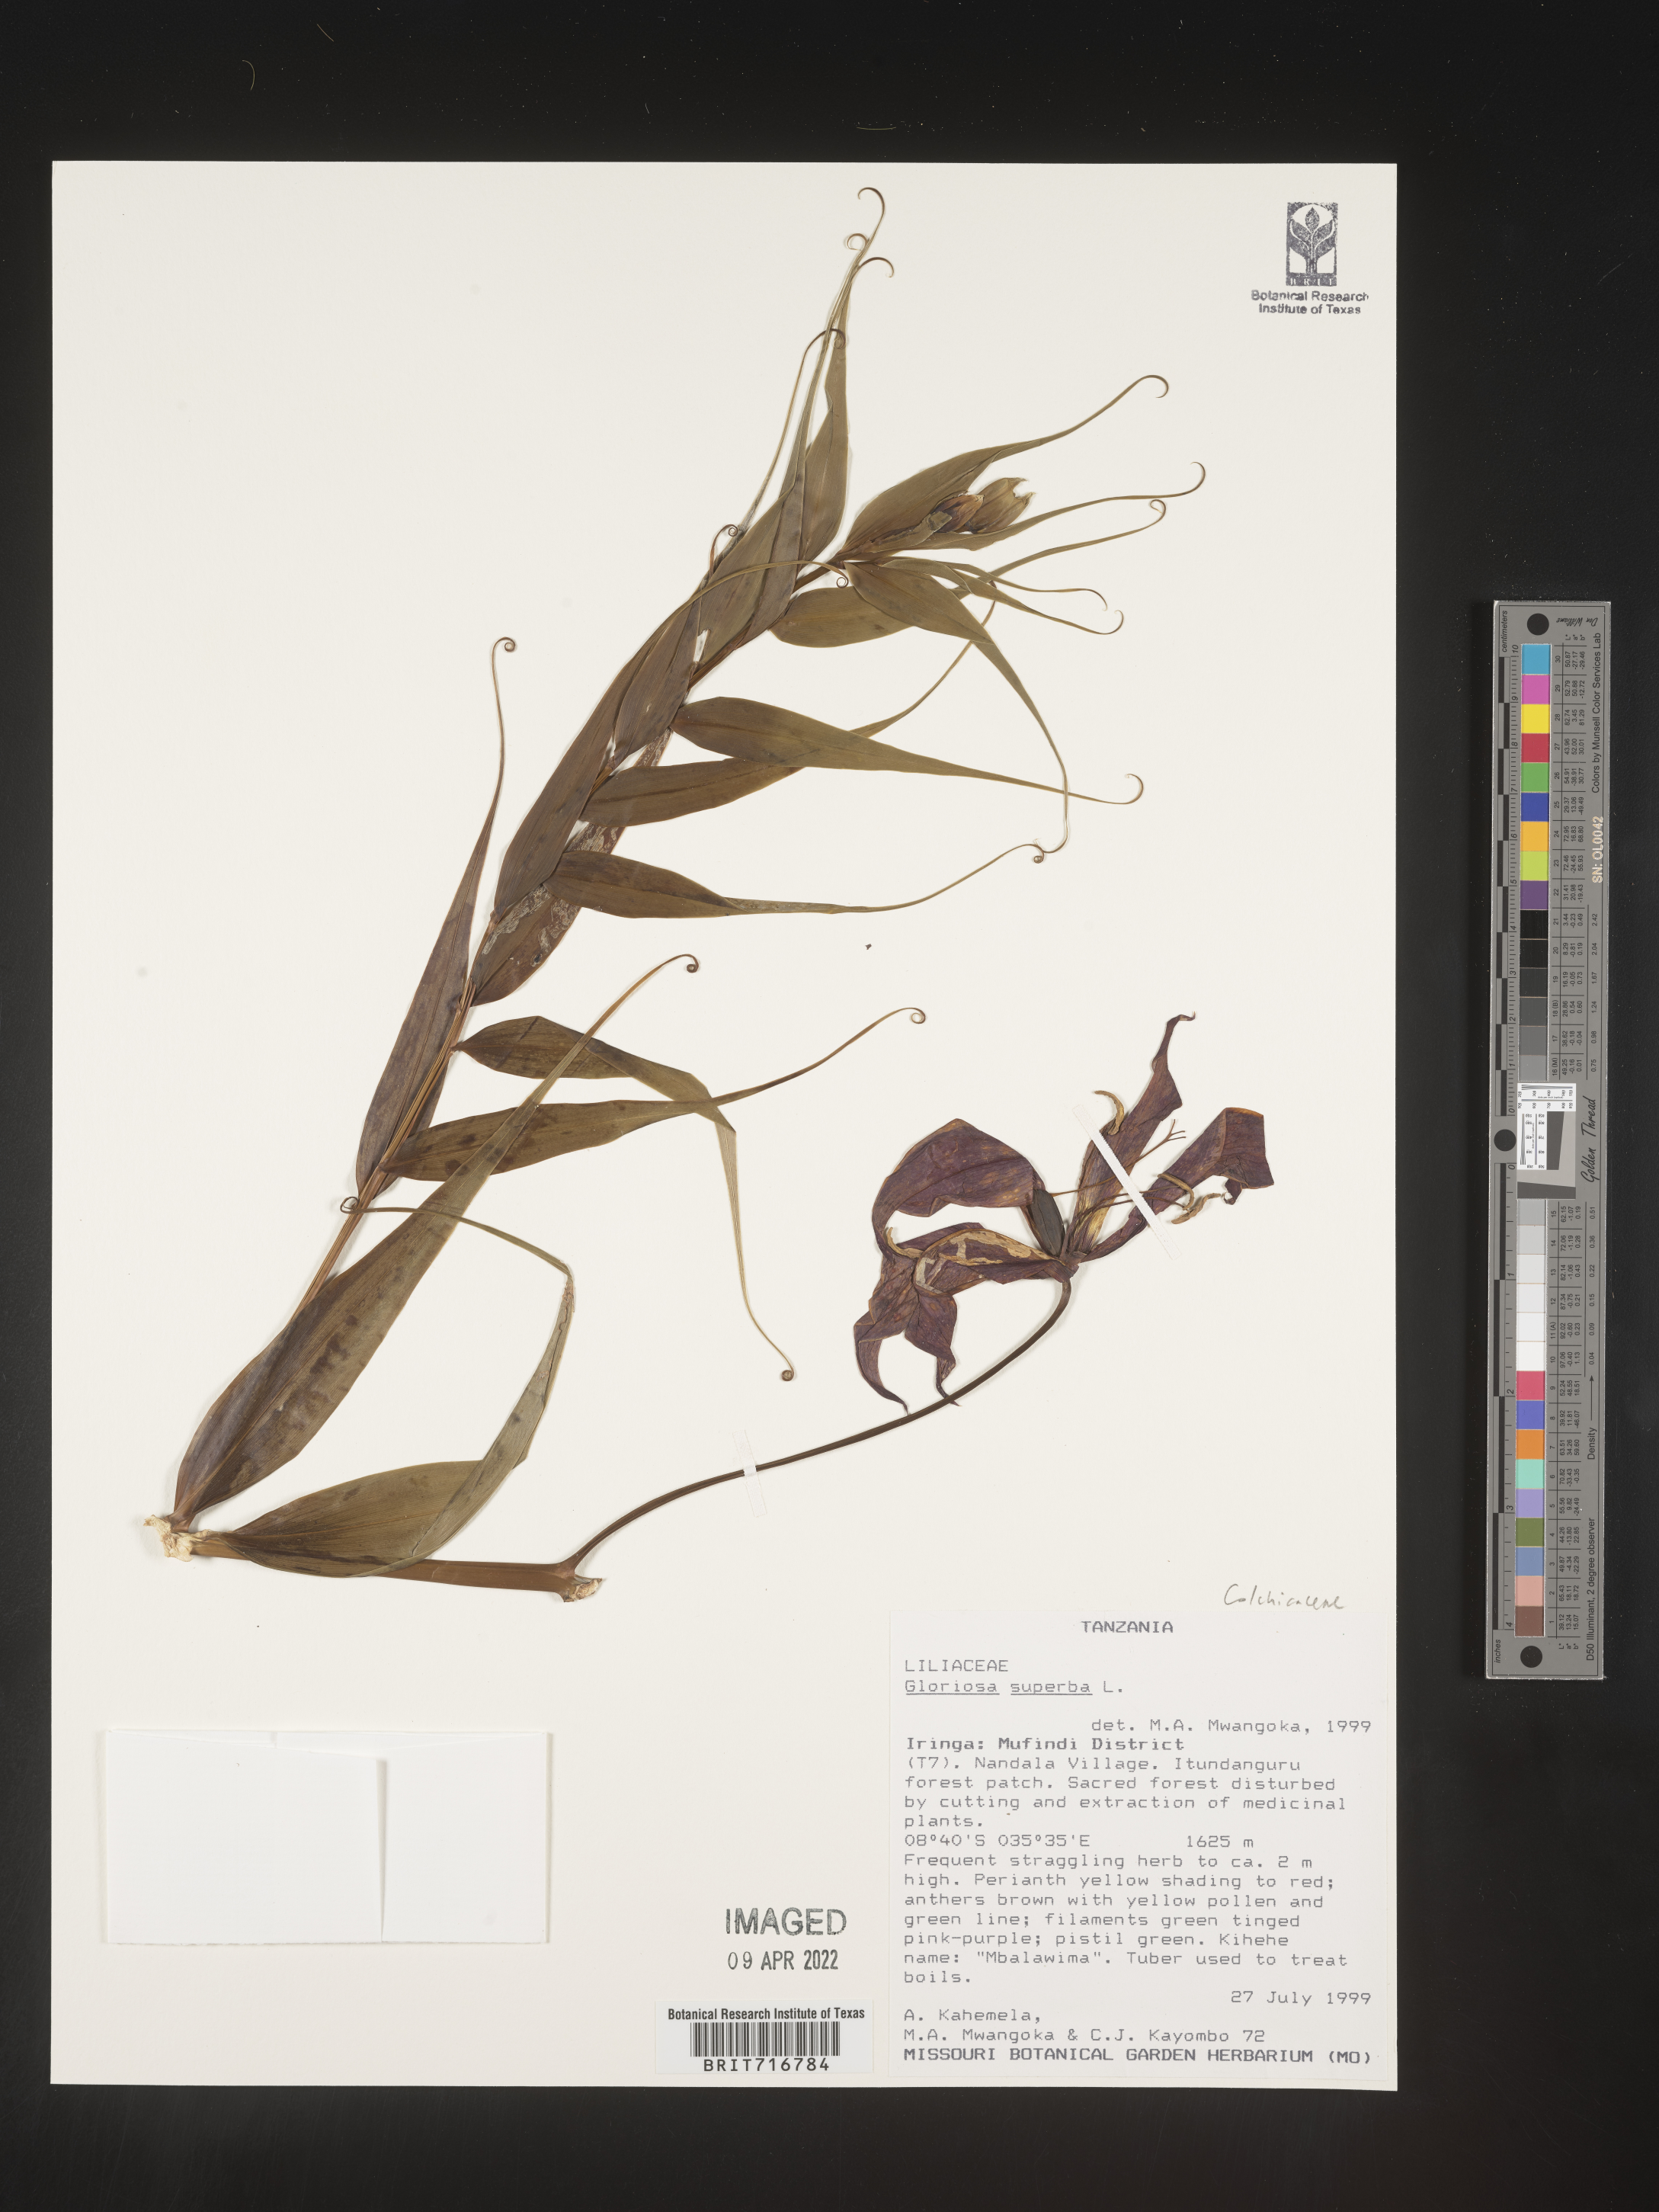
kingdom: Plantae
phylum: Tracheophyta
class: Liliopsida
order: Liliales
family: Colchicaceae
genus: Gloriosa
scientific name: Gloriosa
